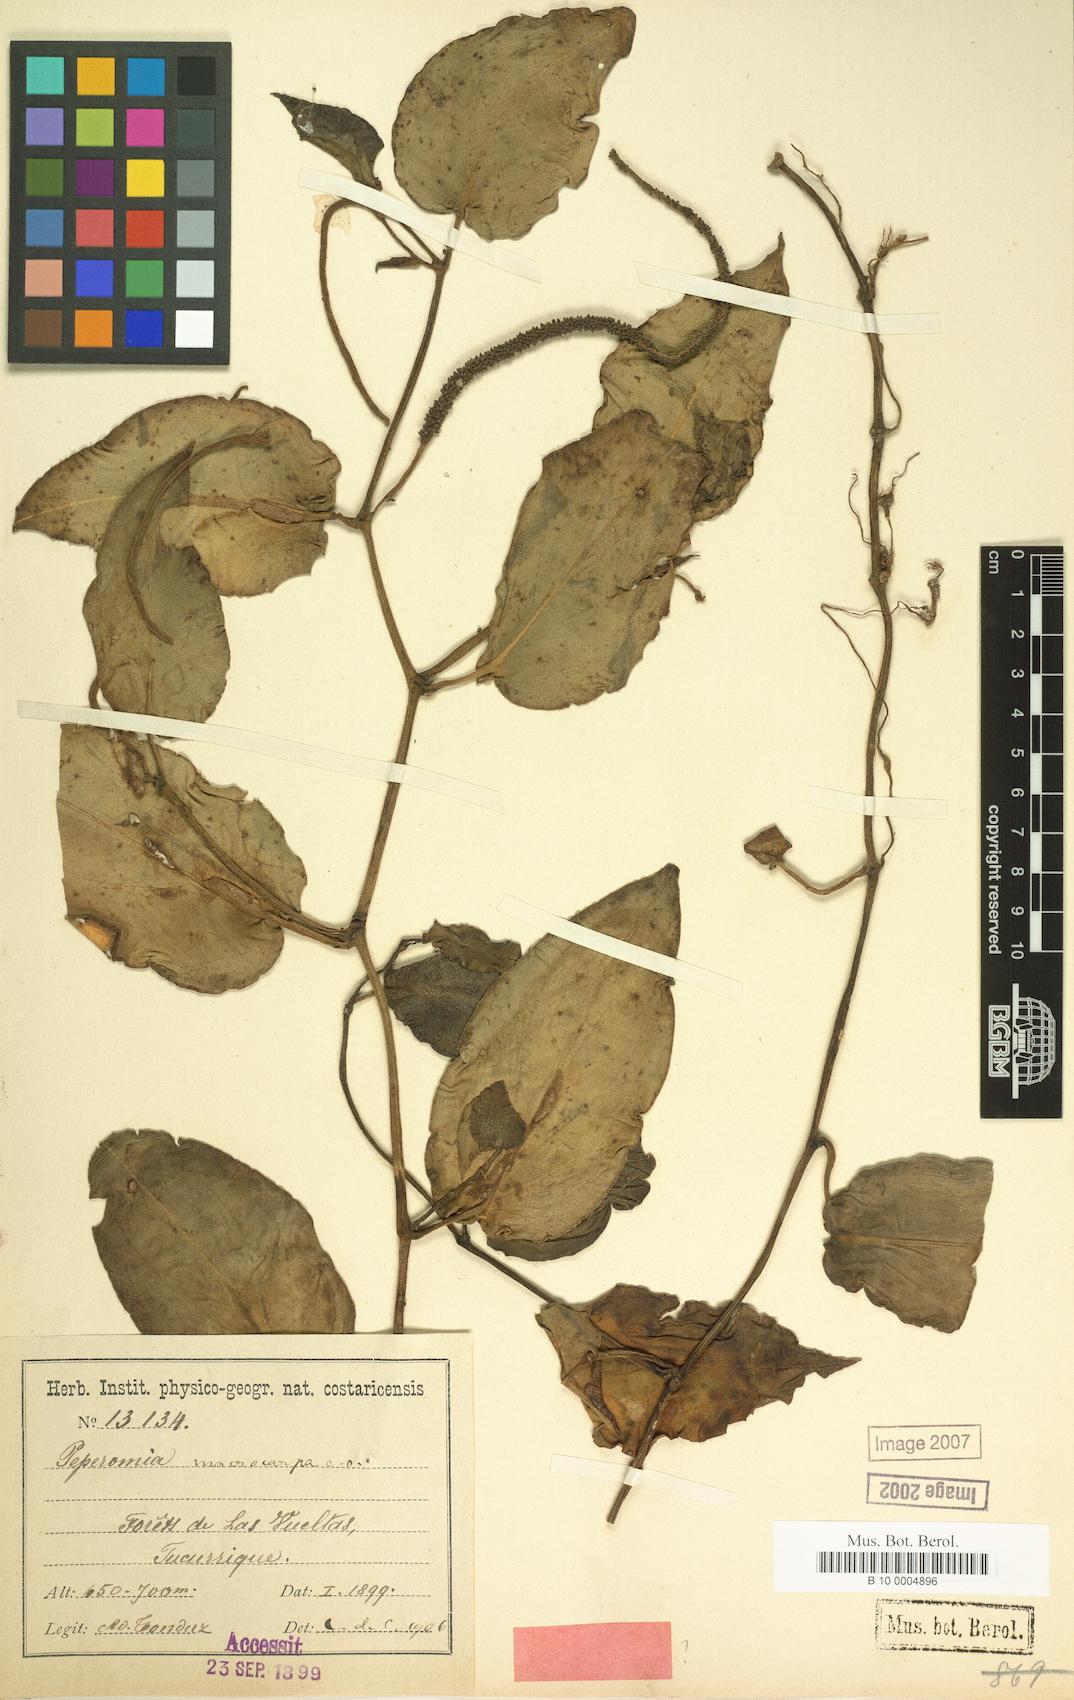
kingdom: Plantae
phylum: Tracheophyta
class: Magnoliopsida
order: Piperales
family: Piperaceae
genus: Peperomia
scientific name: Peperomia vinasiana
